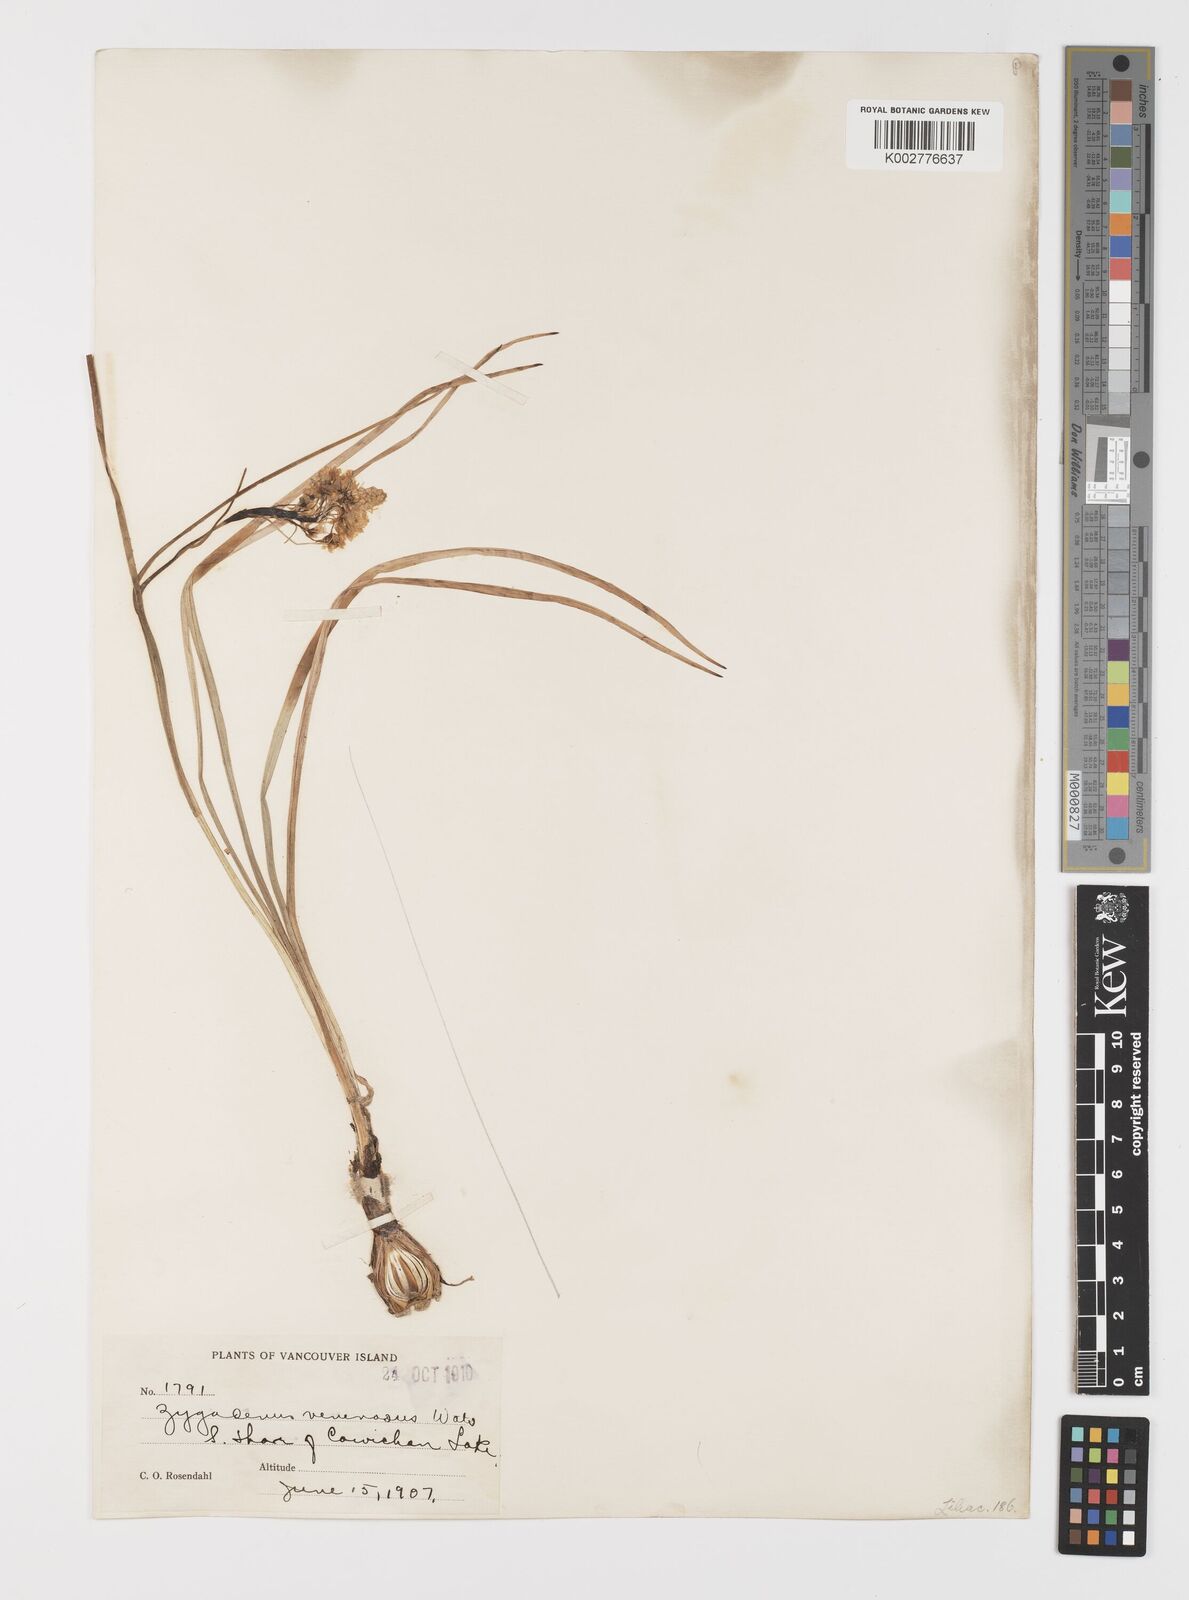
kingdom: Plantae
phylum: Tracheophyta
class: Liliopsida
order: Liliales
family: Melanthiaceae
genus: Toxicoscordion
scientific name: Toxicoscordion venenosum
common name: Meadow death camas
